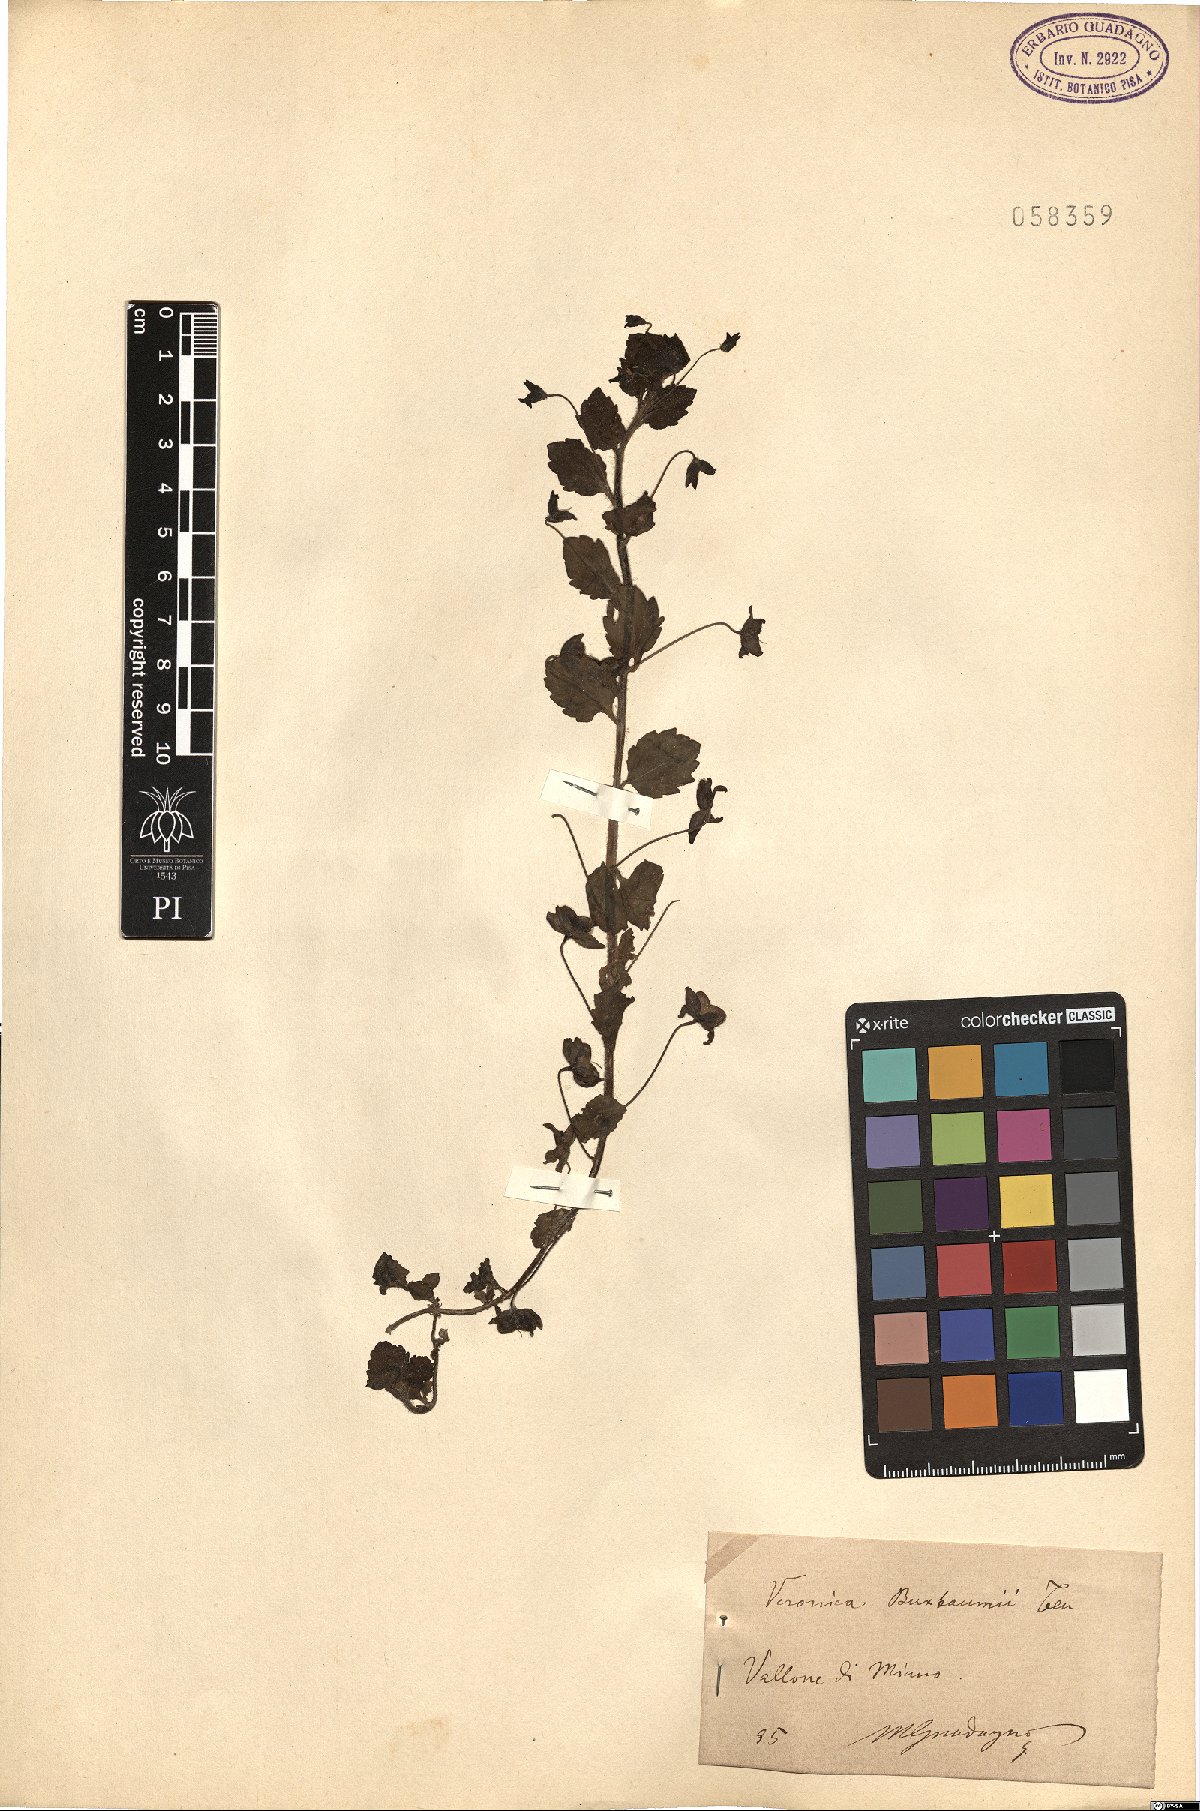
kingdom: Plantae
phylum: Tracheophyta
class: Magnoliopsida
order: Lamiales
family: Plantaginaceae
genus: Veronica
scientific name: Veronica persica
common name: Common field-speedwell
